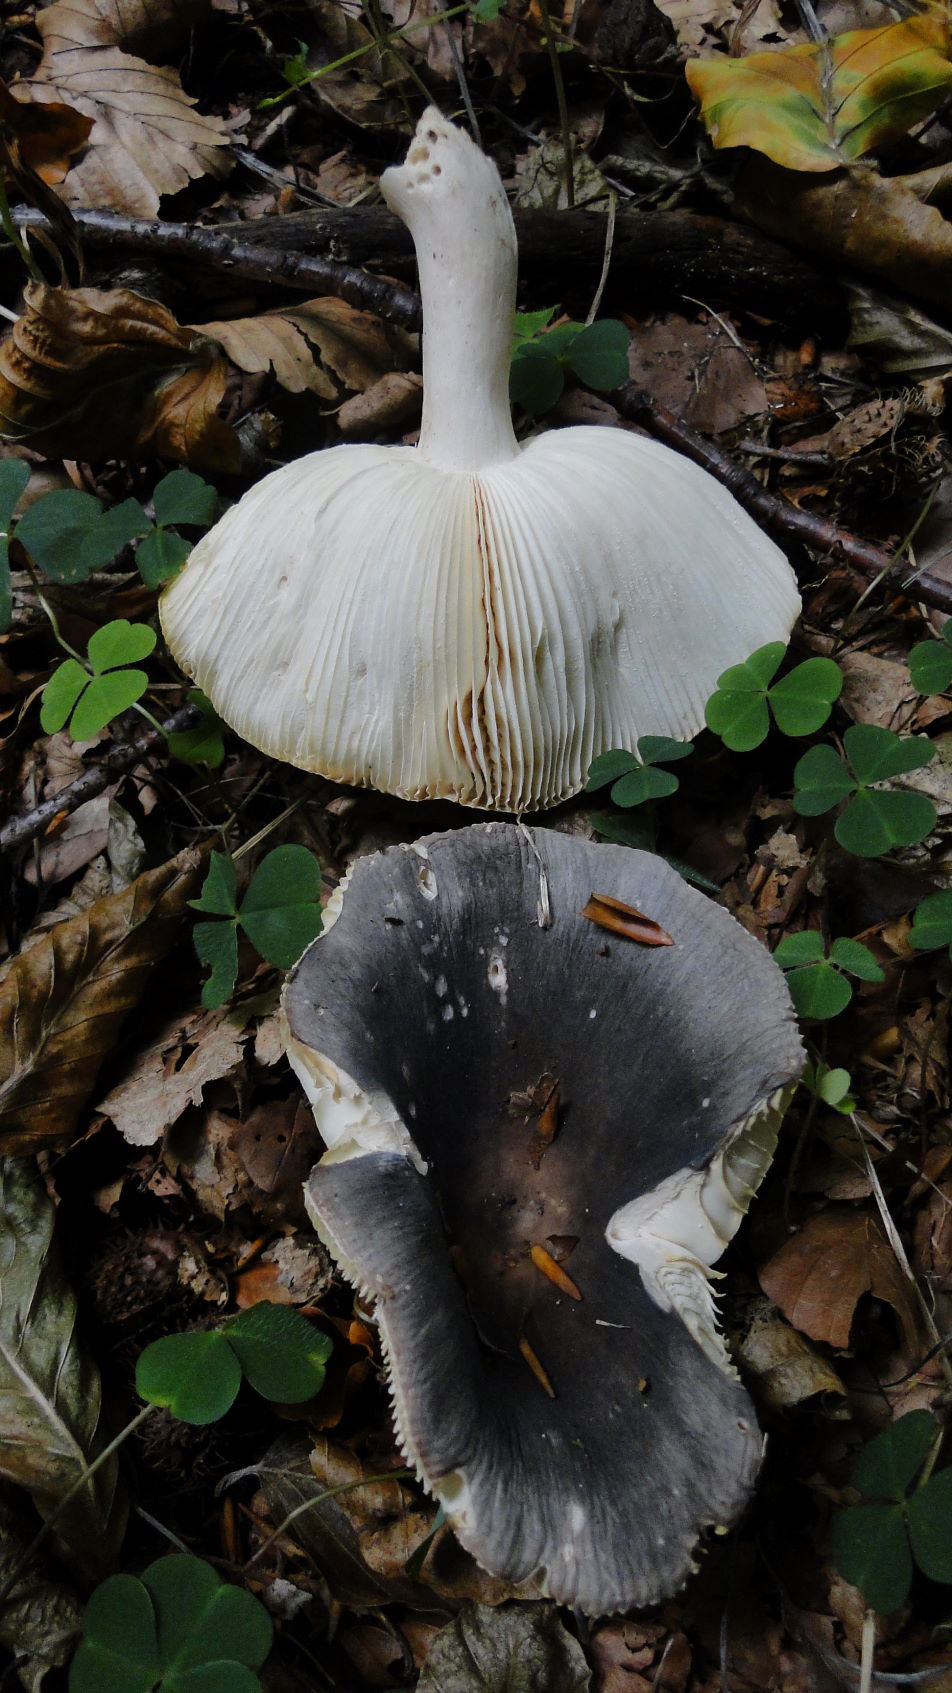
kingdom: Fungi
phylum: Basidiomycota
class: Agaricomycetes
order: Russulales
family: Russulaceae
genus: Russula
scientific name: Russula parazurea
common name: blågrå skørhat
